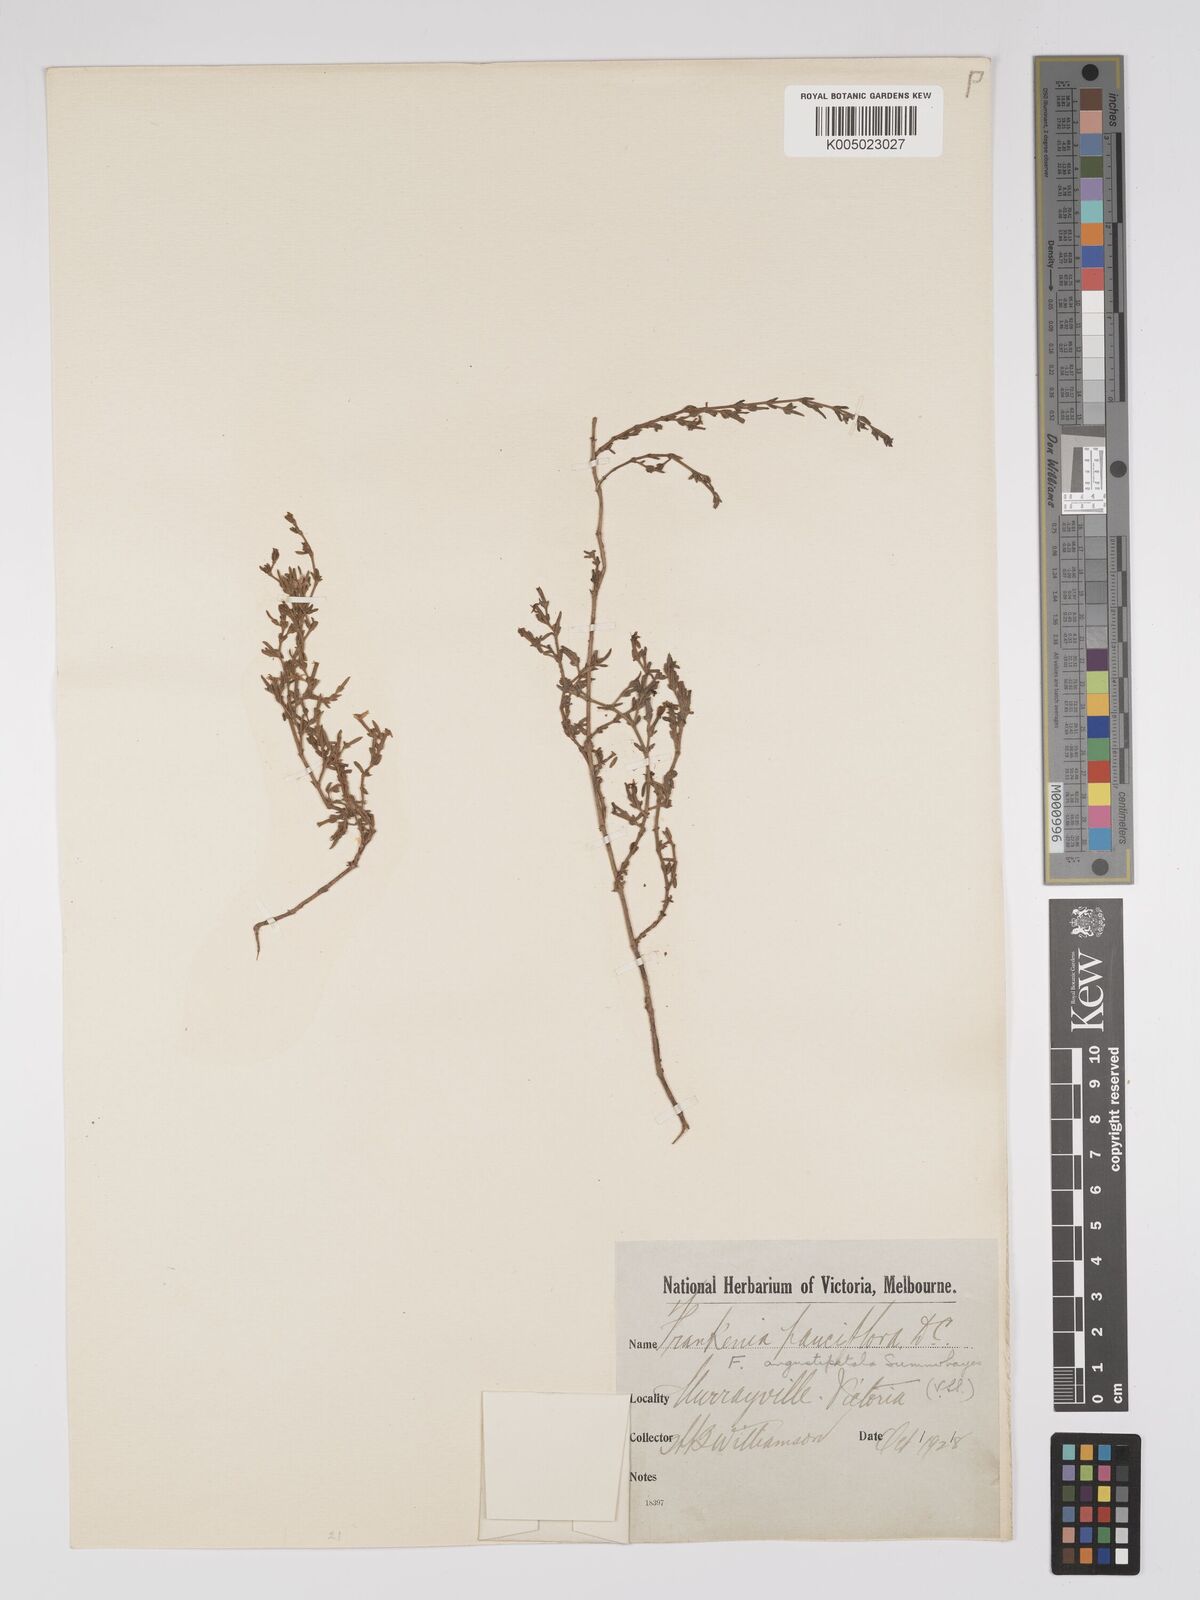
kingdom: Plantae
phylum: Tracheophyta
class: Magnoliopsida
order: Caryophyllales
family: Frankeniaceae
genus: Frankenia
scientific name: Frankenia angustipetala
